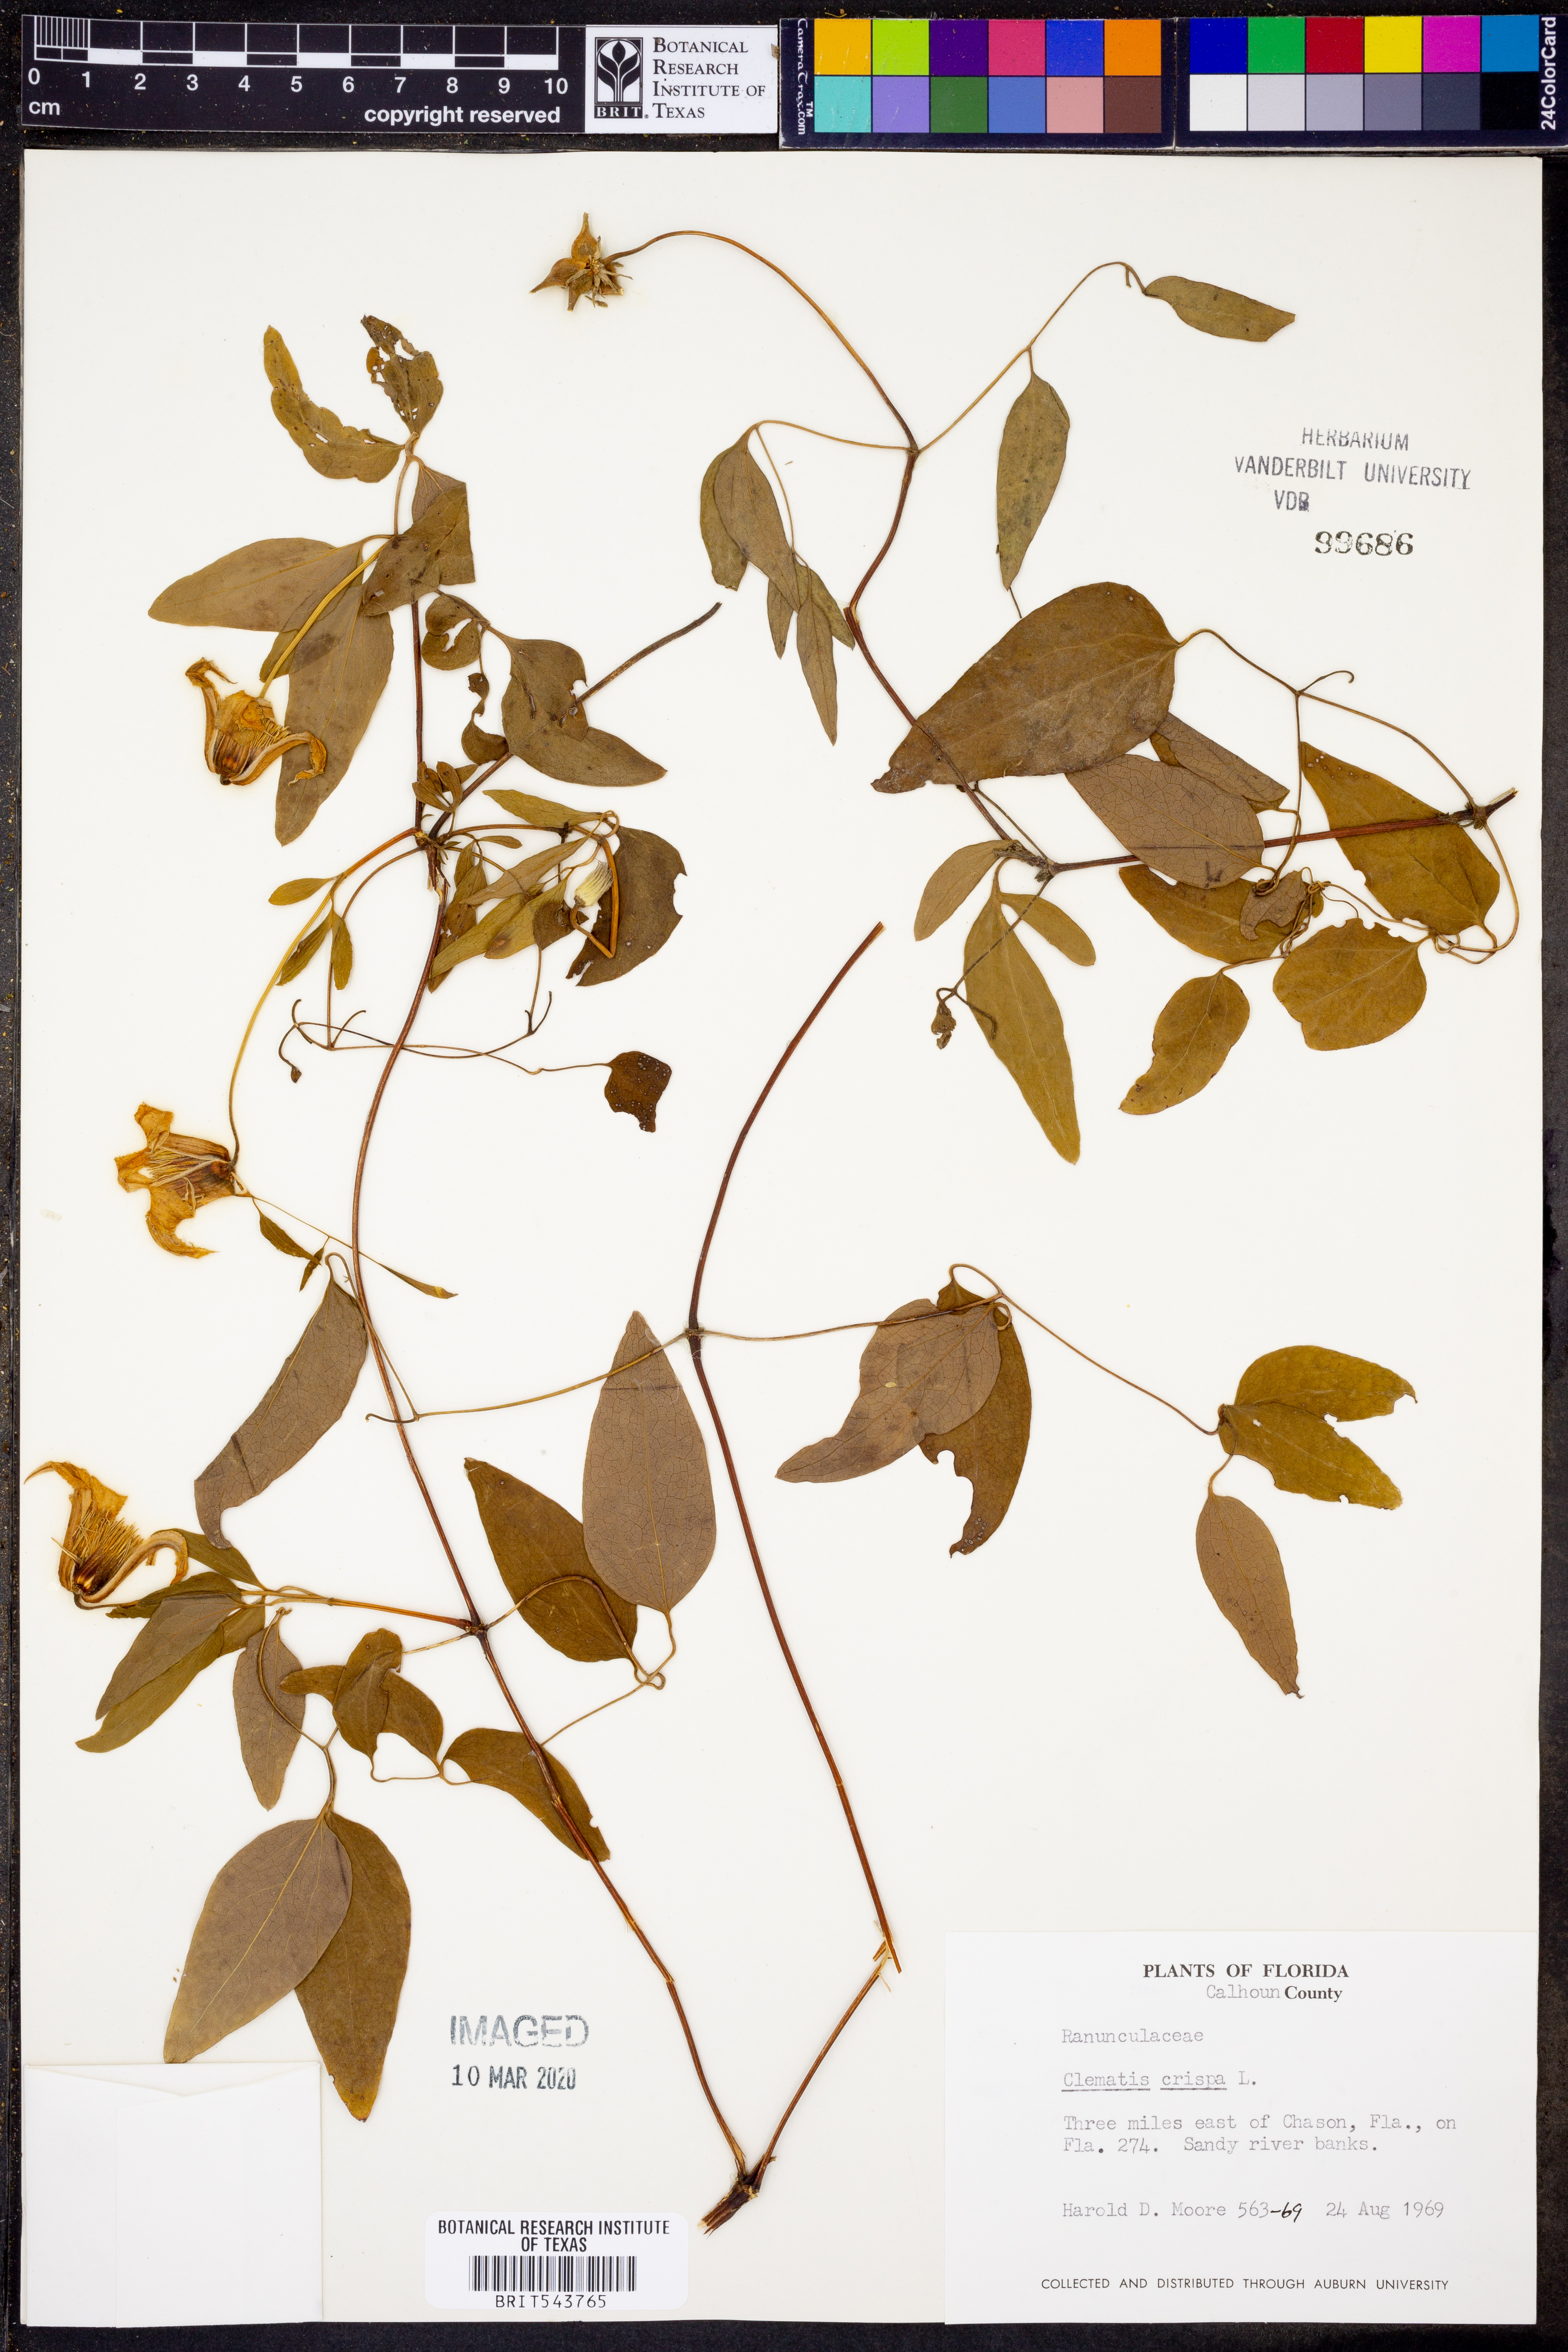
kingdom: Plantae
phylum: Tracheophyta
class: Magnoliopsida
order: Ranunculales
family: Ranunculaceae
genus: Clematis
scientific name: Clematis crispa
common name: Curly clematis
